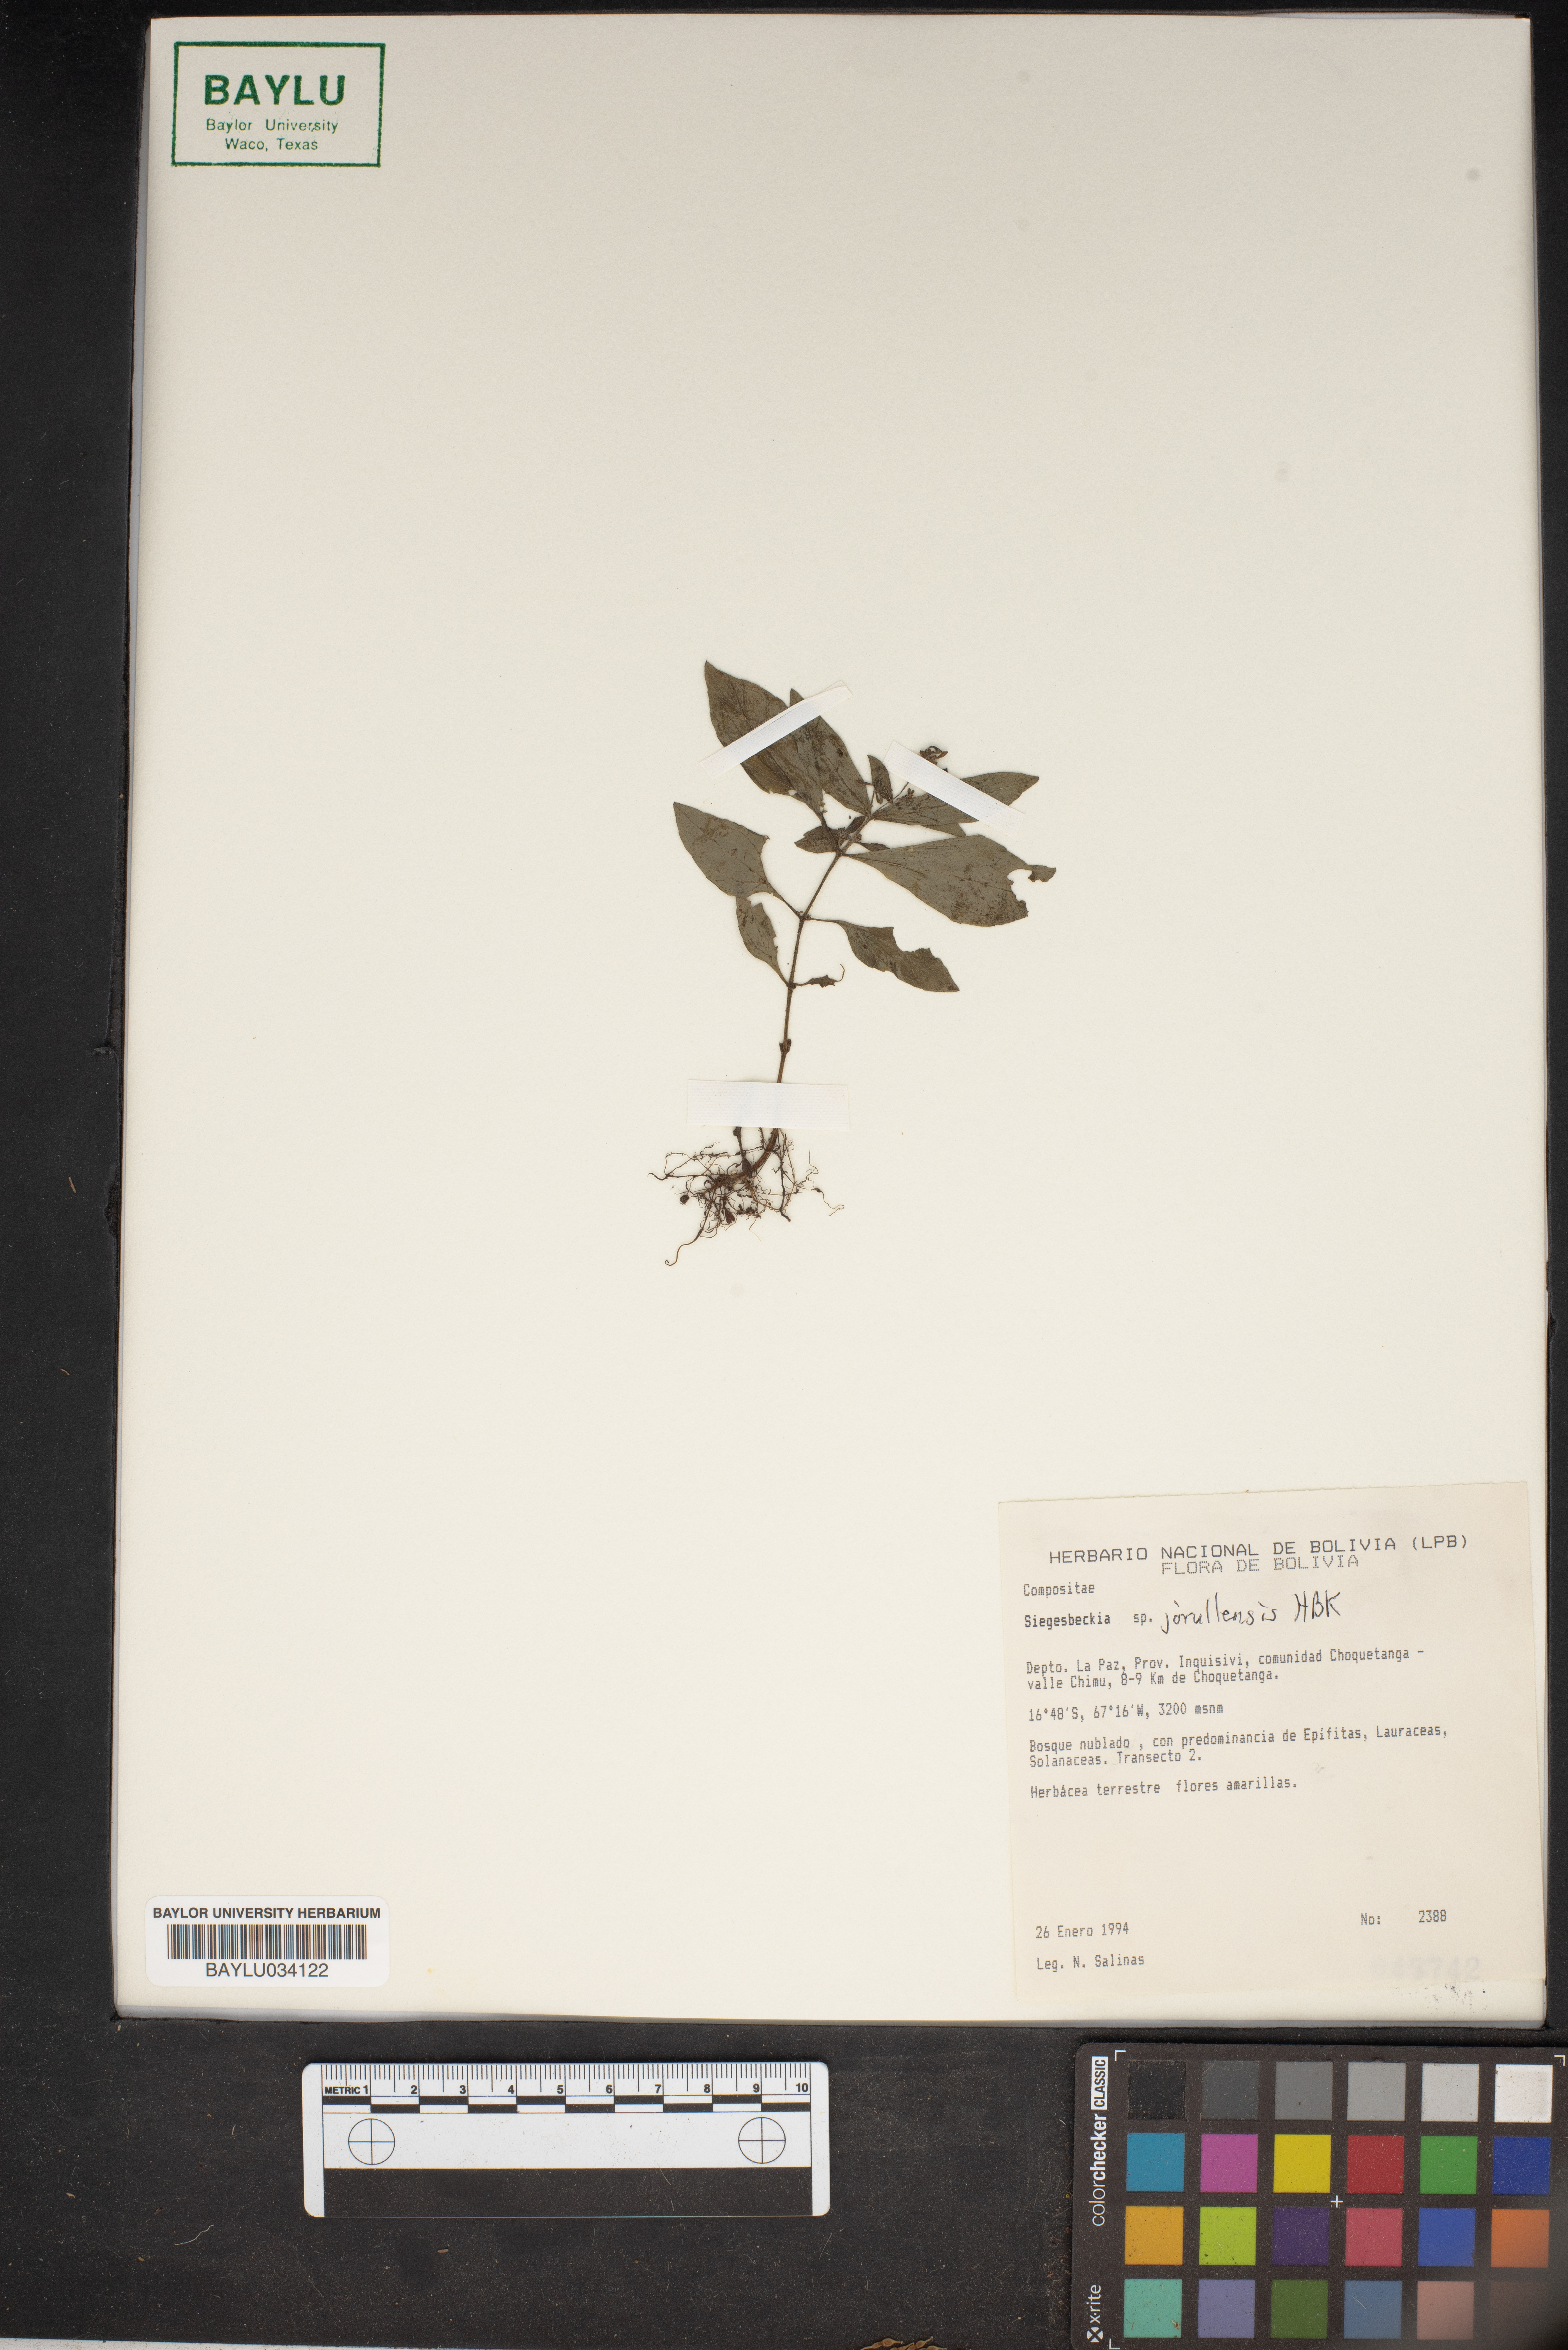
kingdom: Plantae
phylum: Tracheophyta
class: Magnoliopsida
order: Asterales
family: Asteraceae
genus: Siegesbeckia
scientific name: Siegesbeckia
